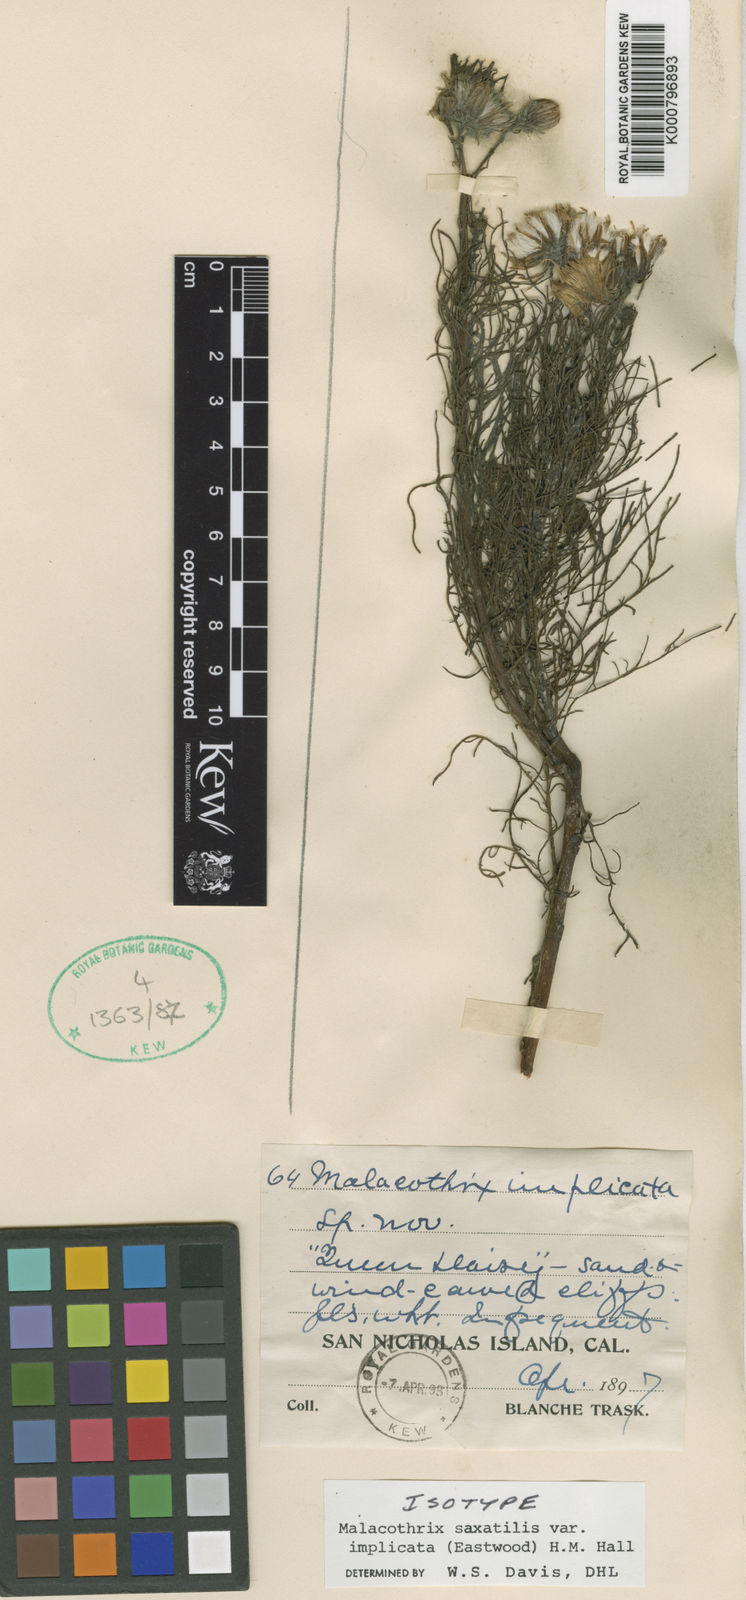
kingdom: Plantae
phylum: Tracheophyta
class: Magnoliopsida
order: Asterales
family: Asteraceae
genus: Malacothrix
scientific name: Malacothrix saxatilis
